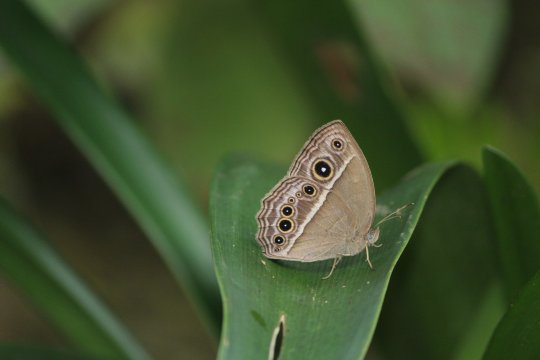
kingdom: Animalia
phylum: Arthropoda
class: Insecta
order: Lepidoptera
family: Nymphalidae
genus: Mycalesis
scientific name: Mycalesis janardana
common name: Common Bushbrown
